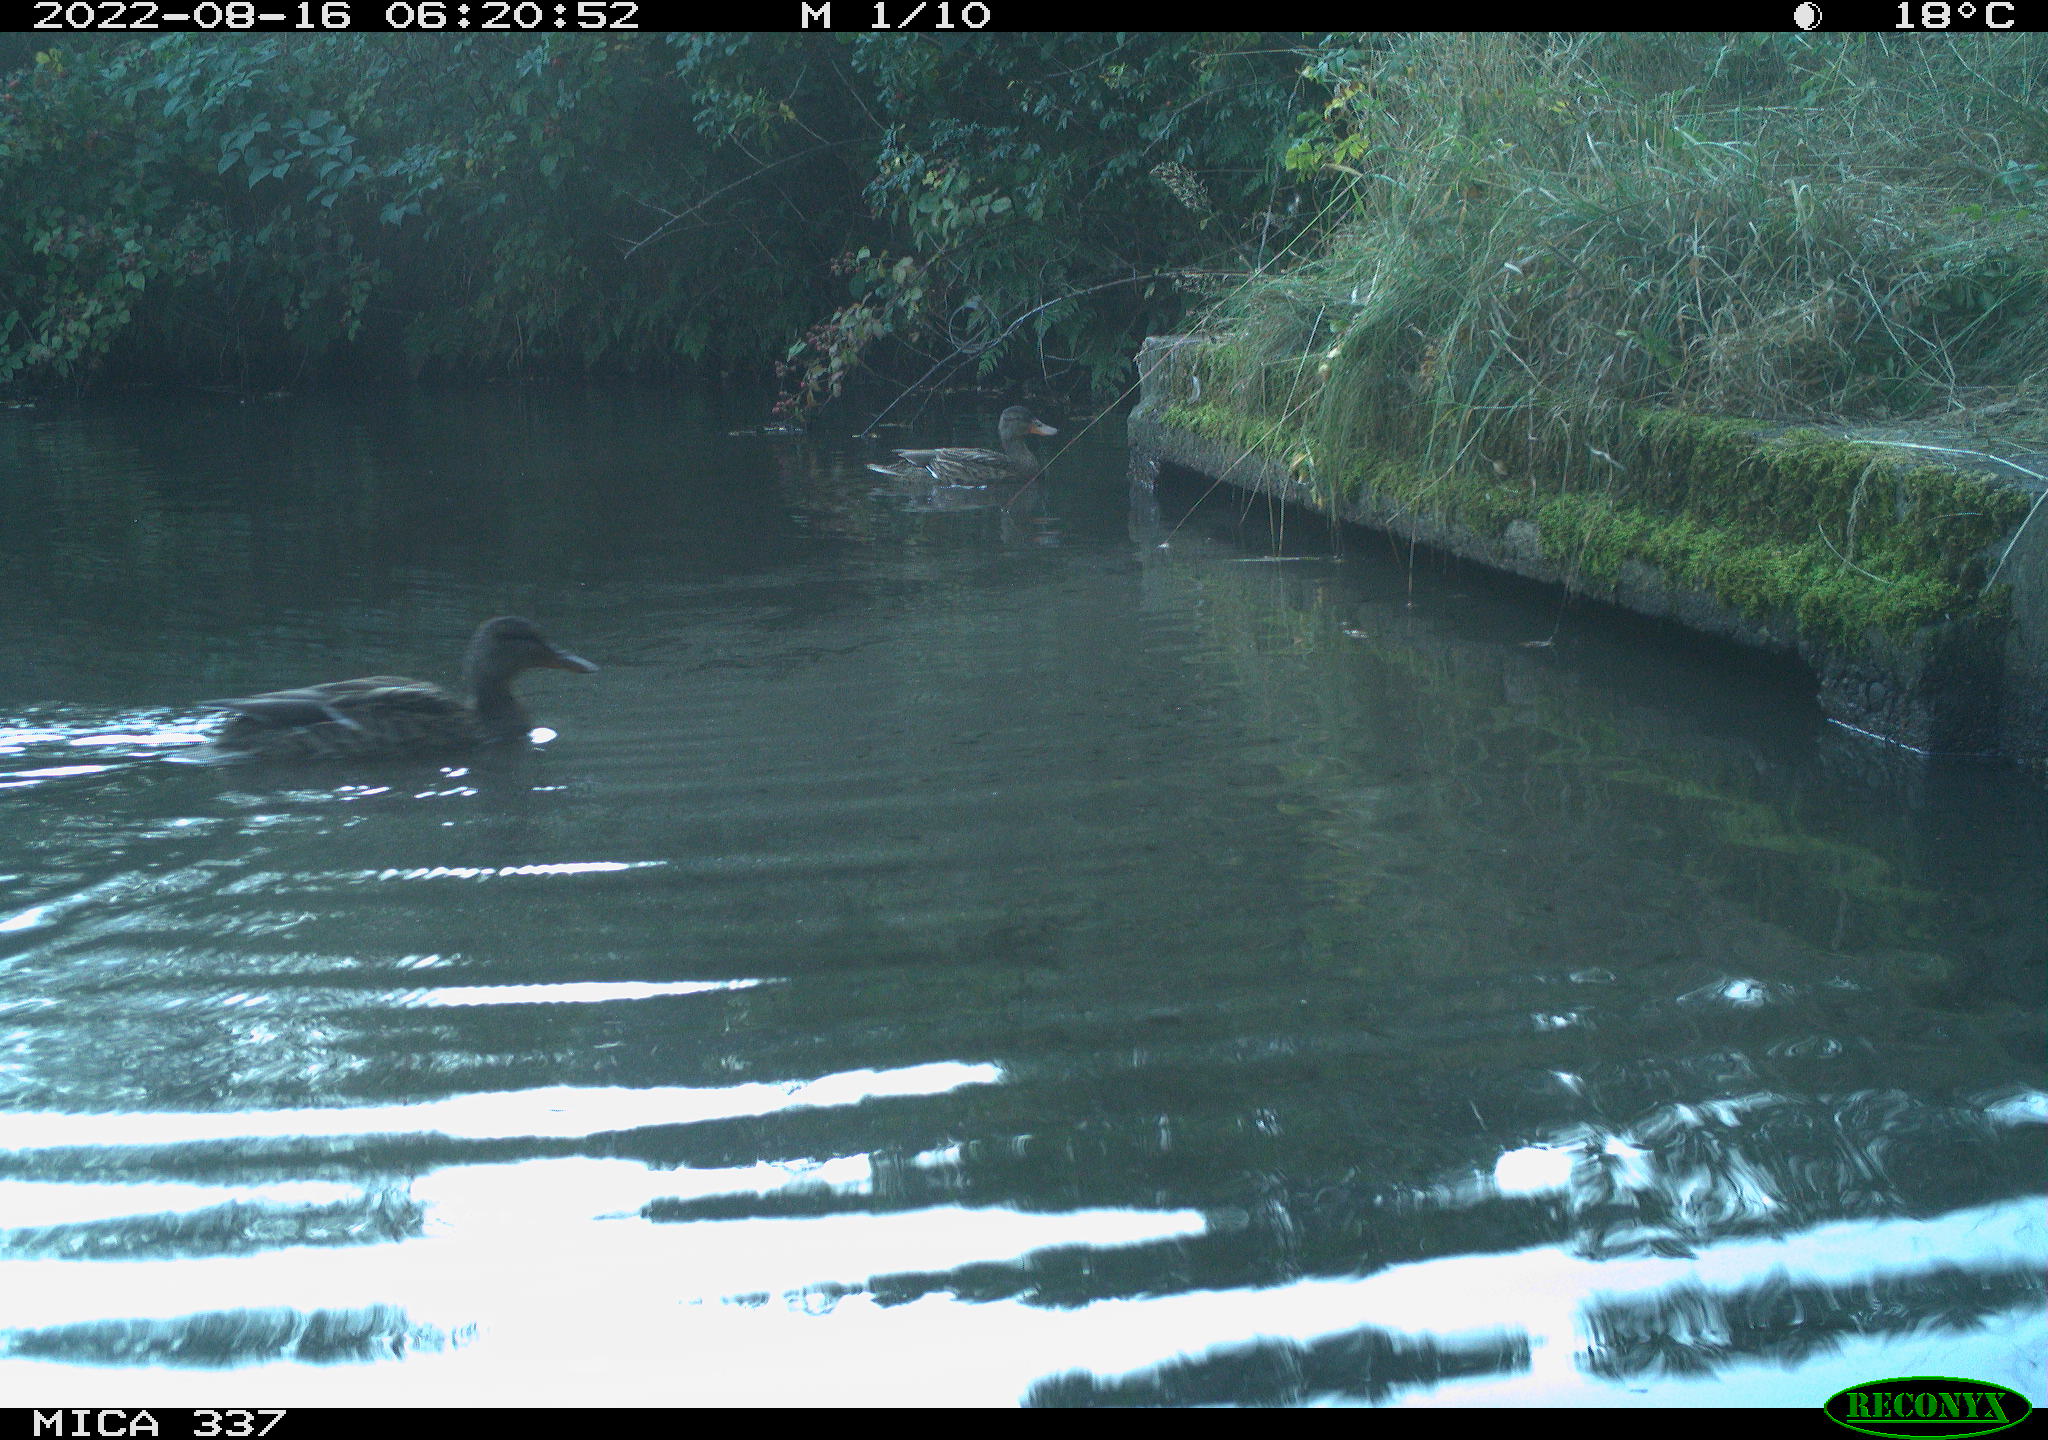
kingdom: Animalia
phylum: Chordata
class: Aves
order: Anseriformes
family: Anatidae
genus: Anas
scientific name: Anas platyrhynchos
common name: Mallard
